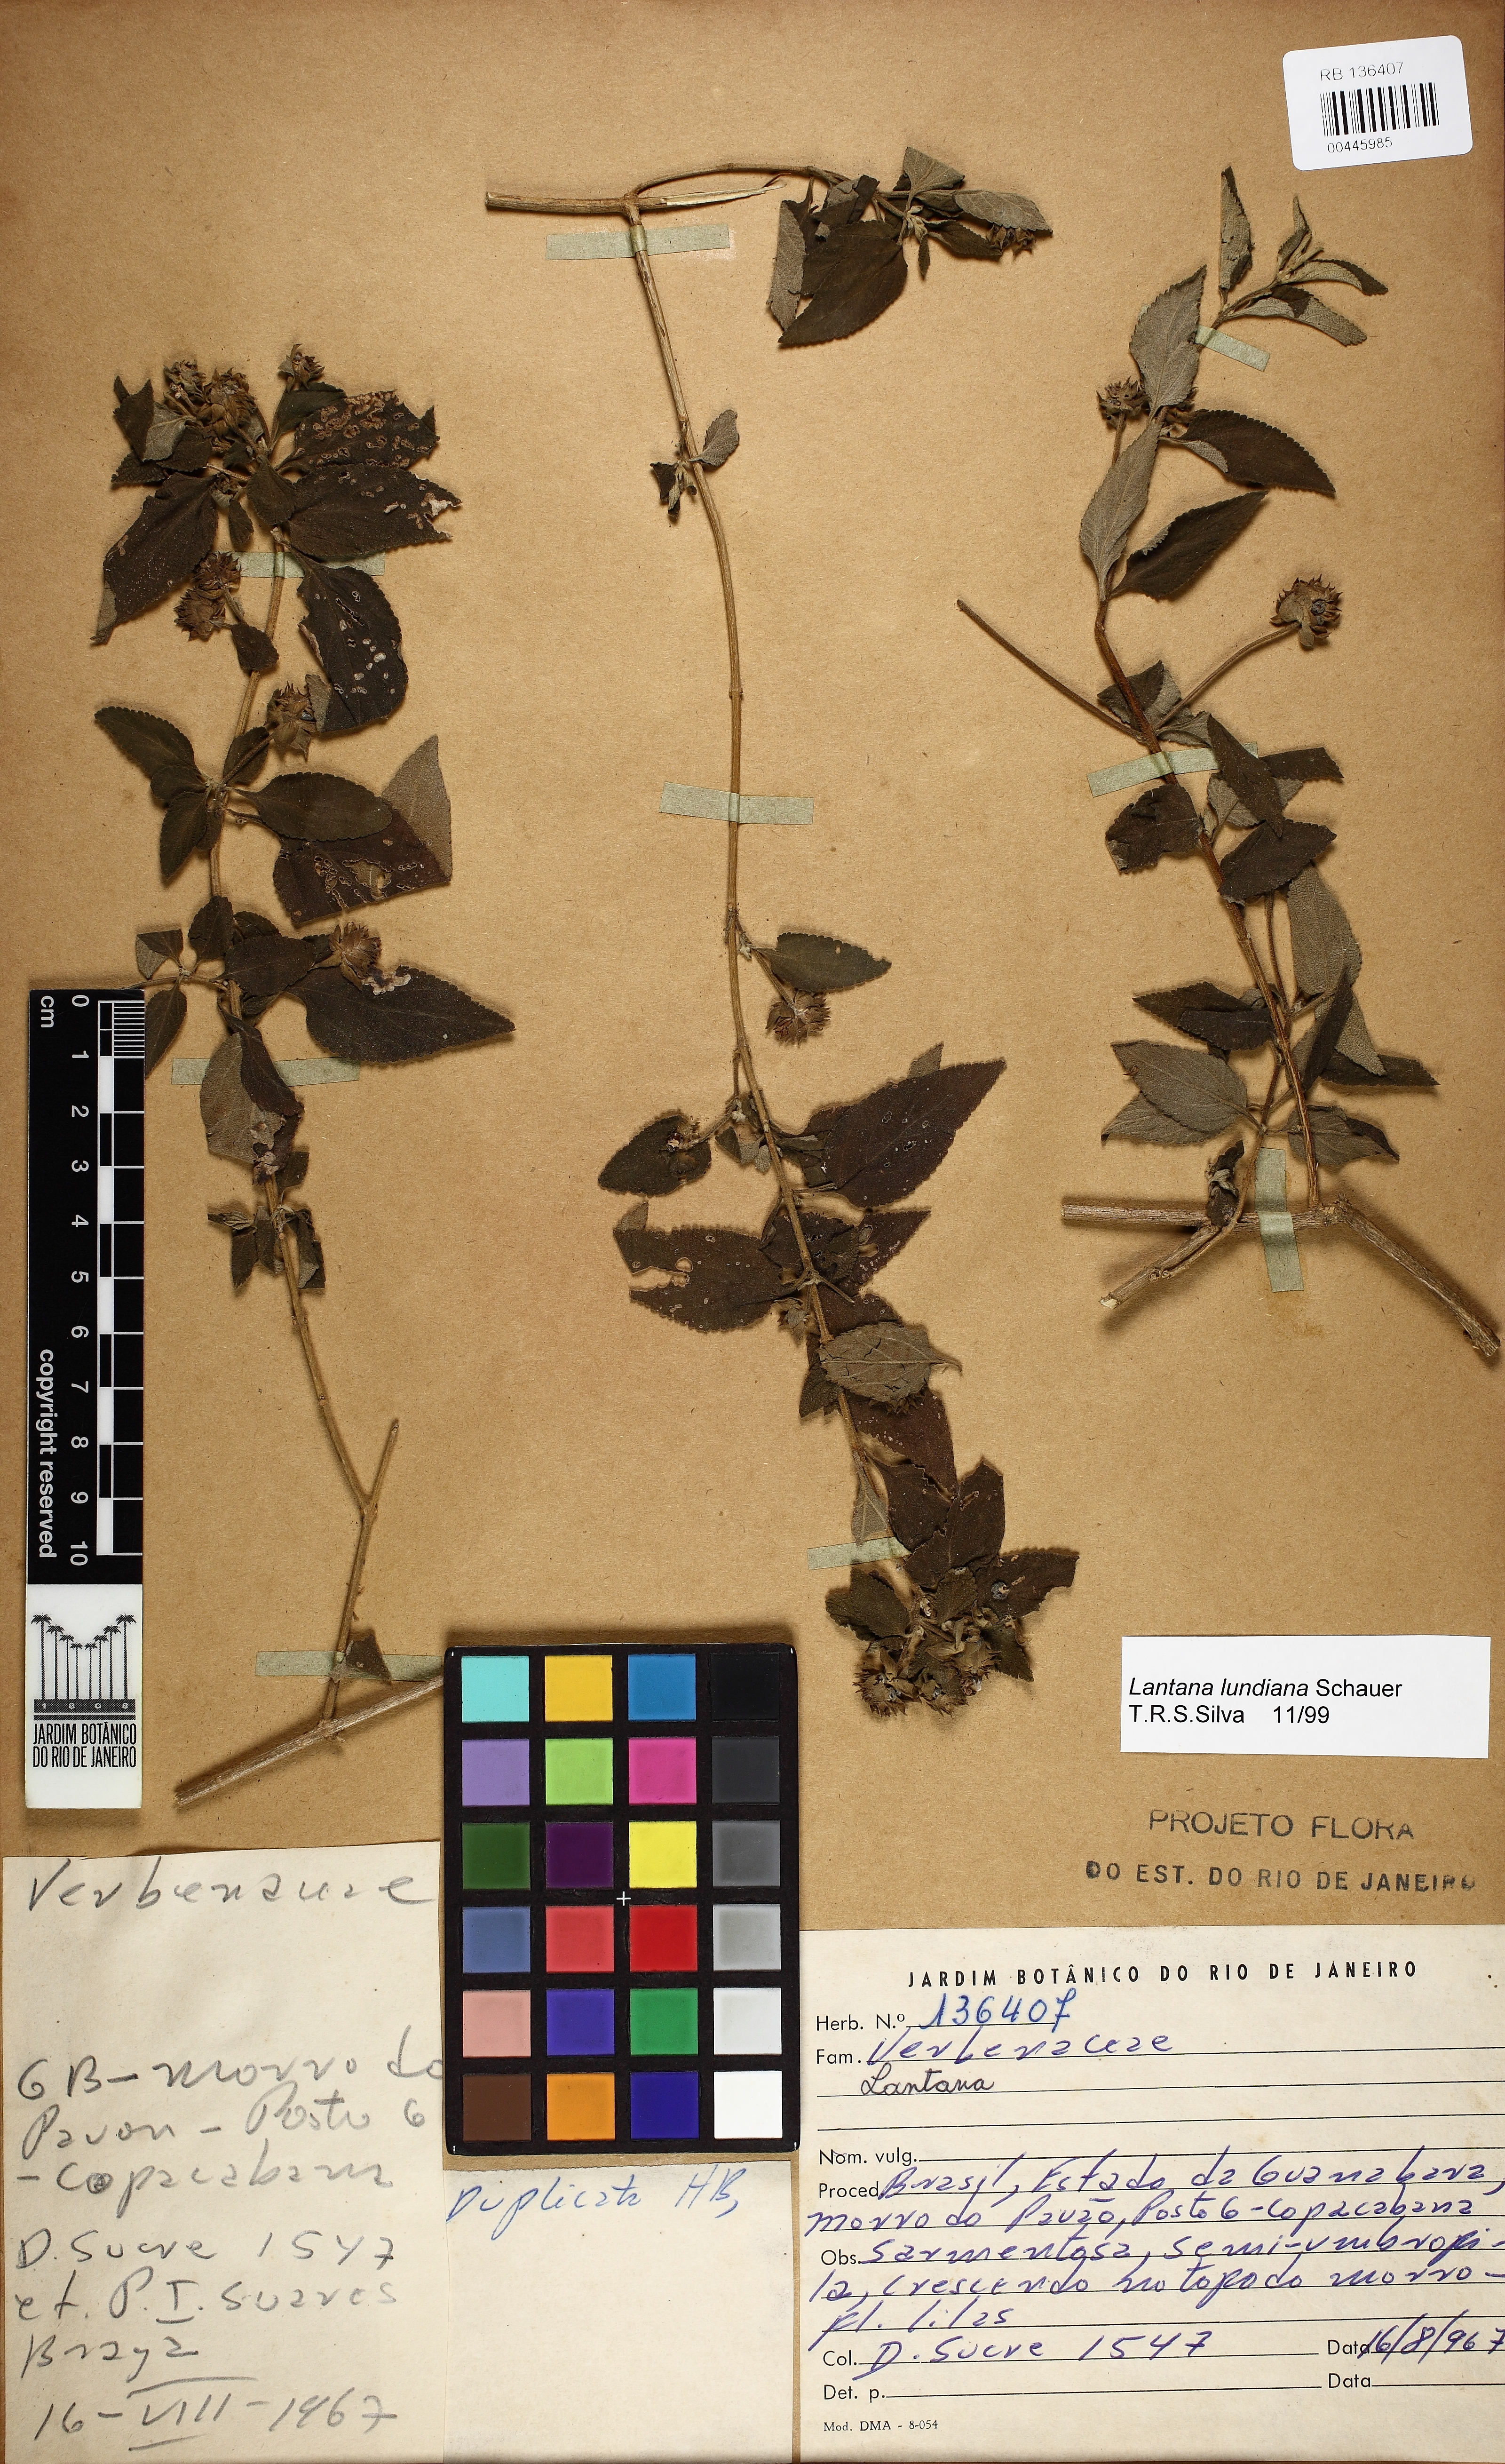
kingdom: Plantae
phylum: Tracheophyta
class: Magnoliopsida
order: Lamiales
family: Verbenaceae
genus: Lantana
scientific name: Lantana lundiana
